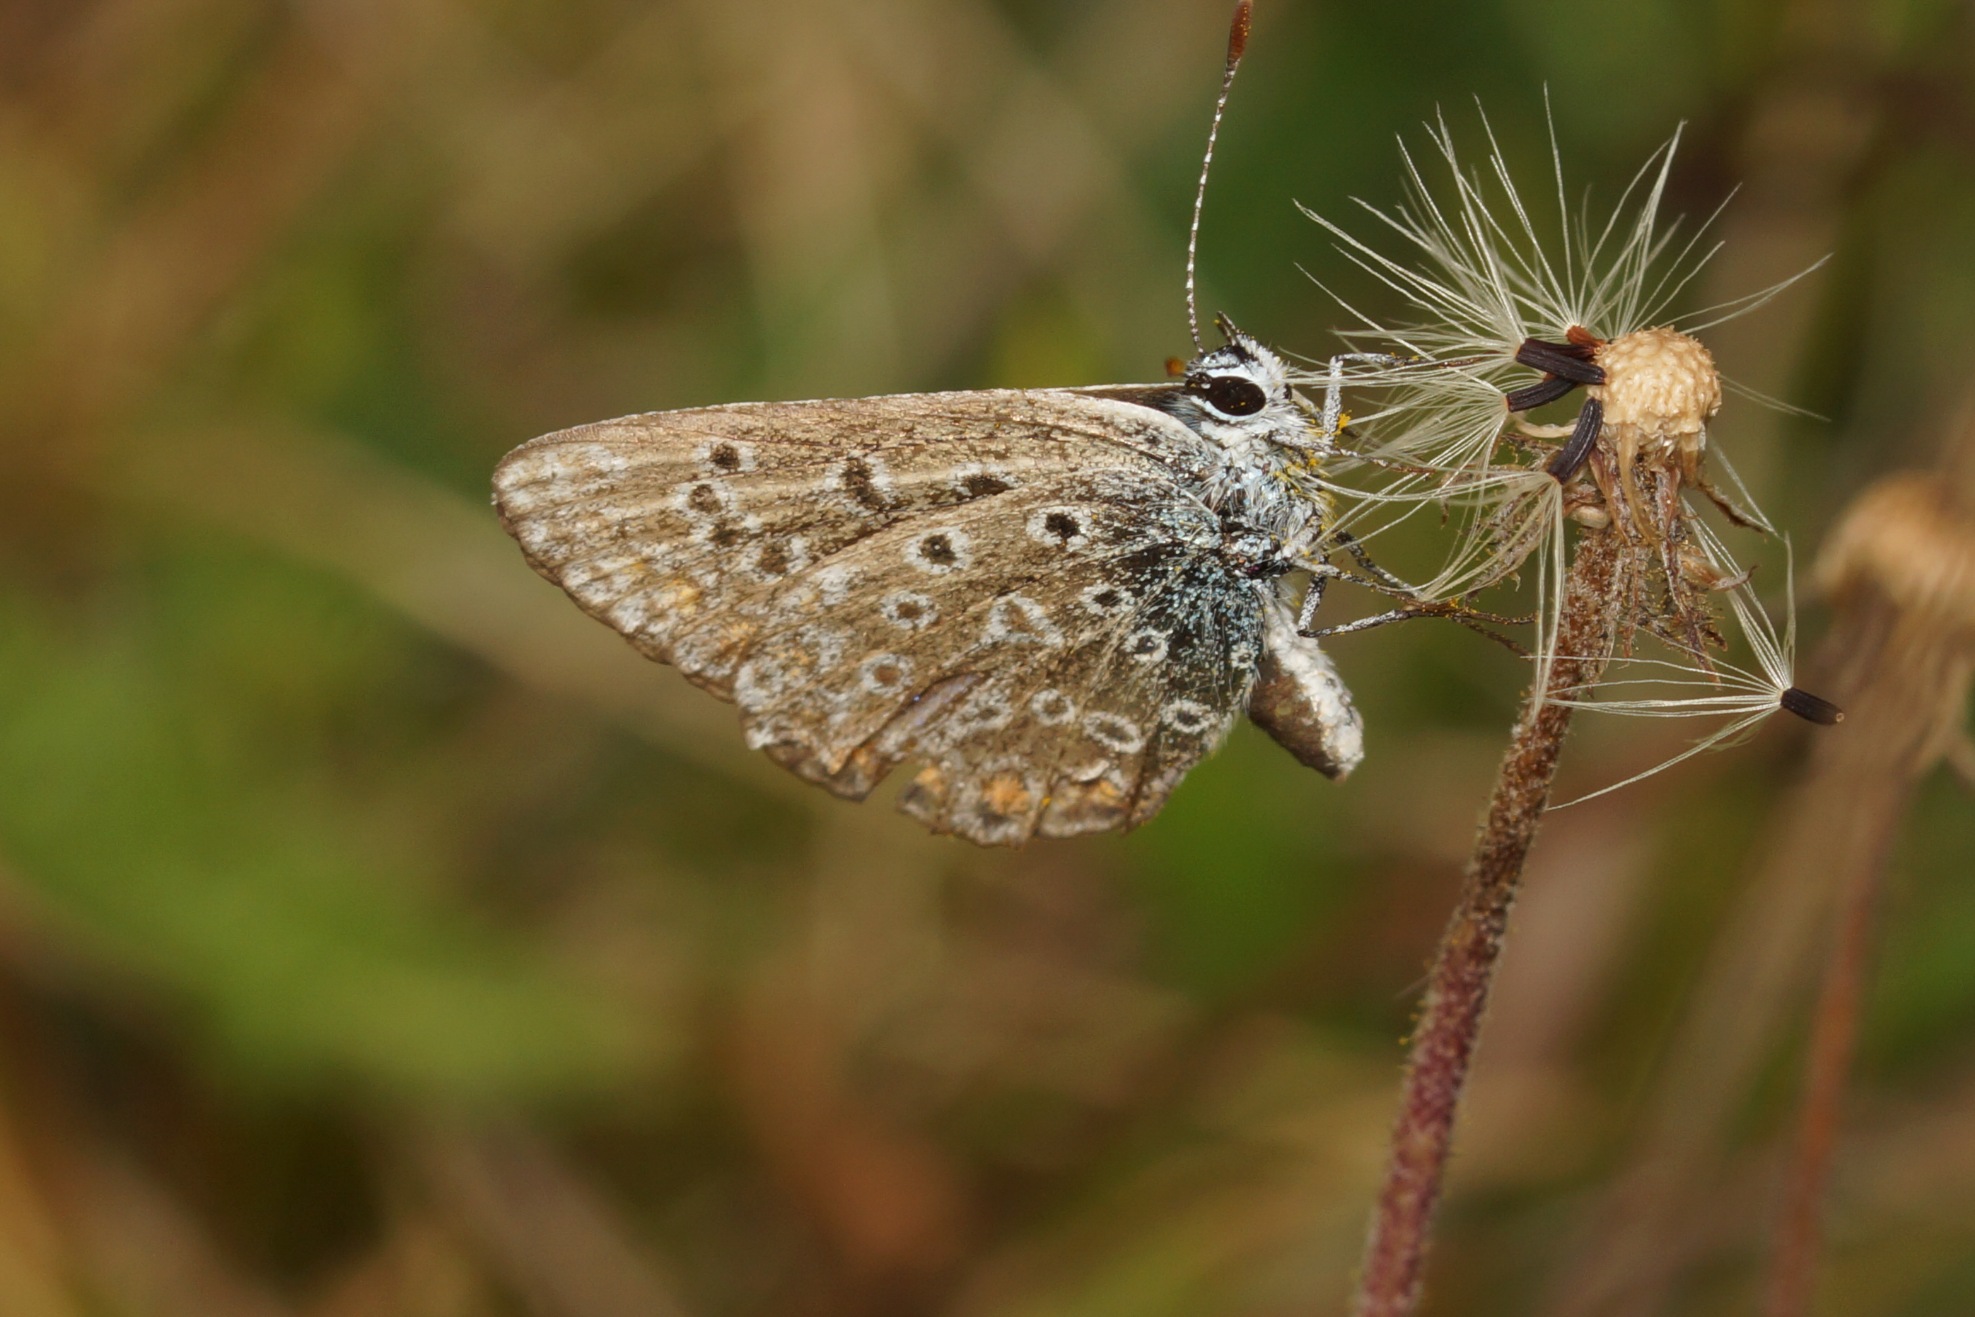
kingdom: Animalia
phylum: Arthropoda
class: Insecta
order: Lepidoptera
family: Lycaenidae
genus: Polyommatus
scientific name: Polyommatus icarus
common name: Almindelig blåfugl
